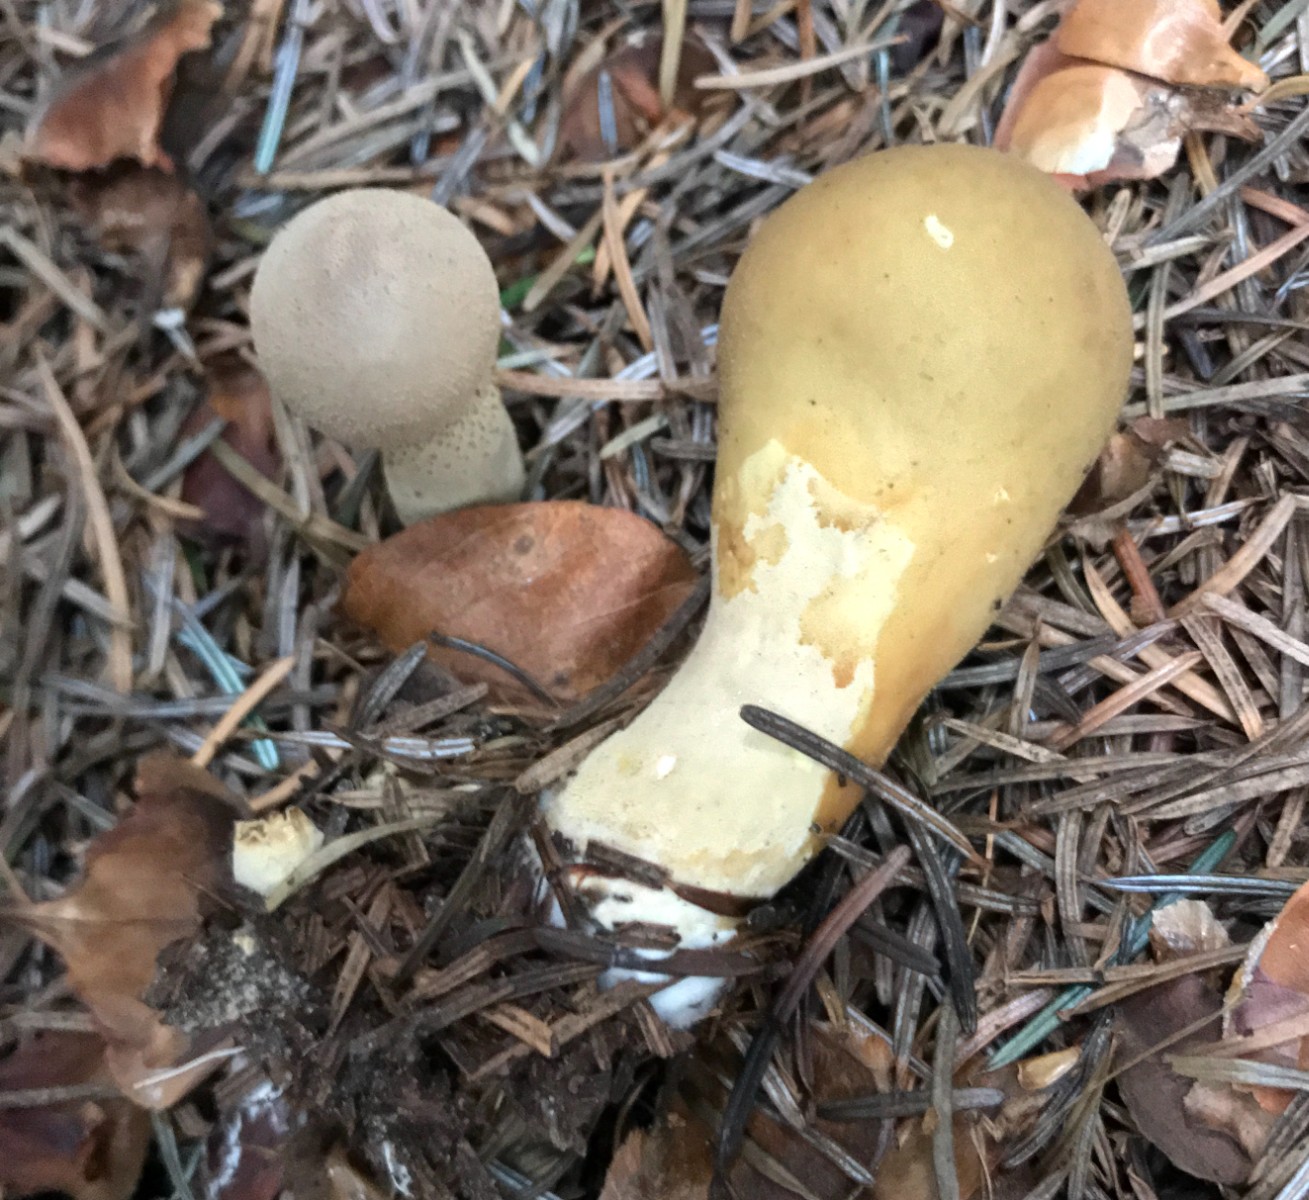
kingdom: Fungi
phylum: Basidiomycota
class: Agaricomycetes
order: Agaricales
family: Lycoperdaceae
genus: Lycoperdon
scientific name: Lycoperdon excipuliforme
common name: højstokket støvbold
